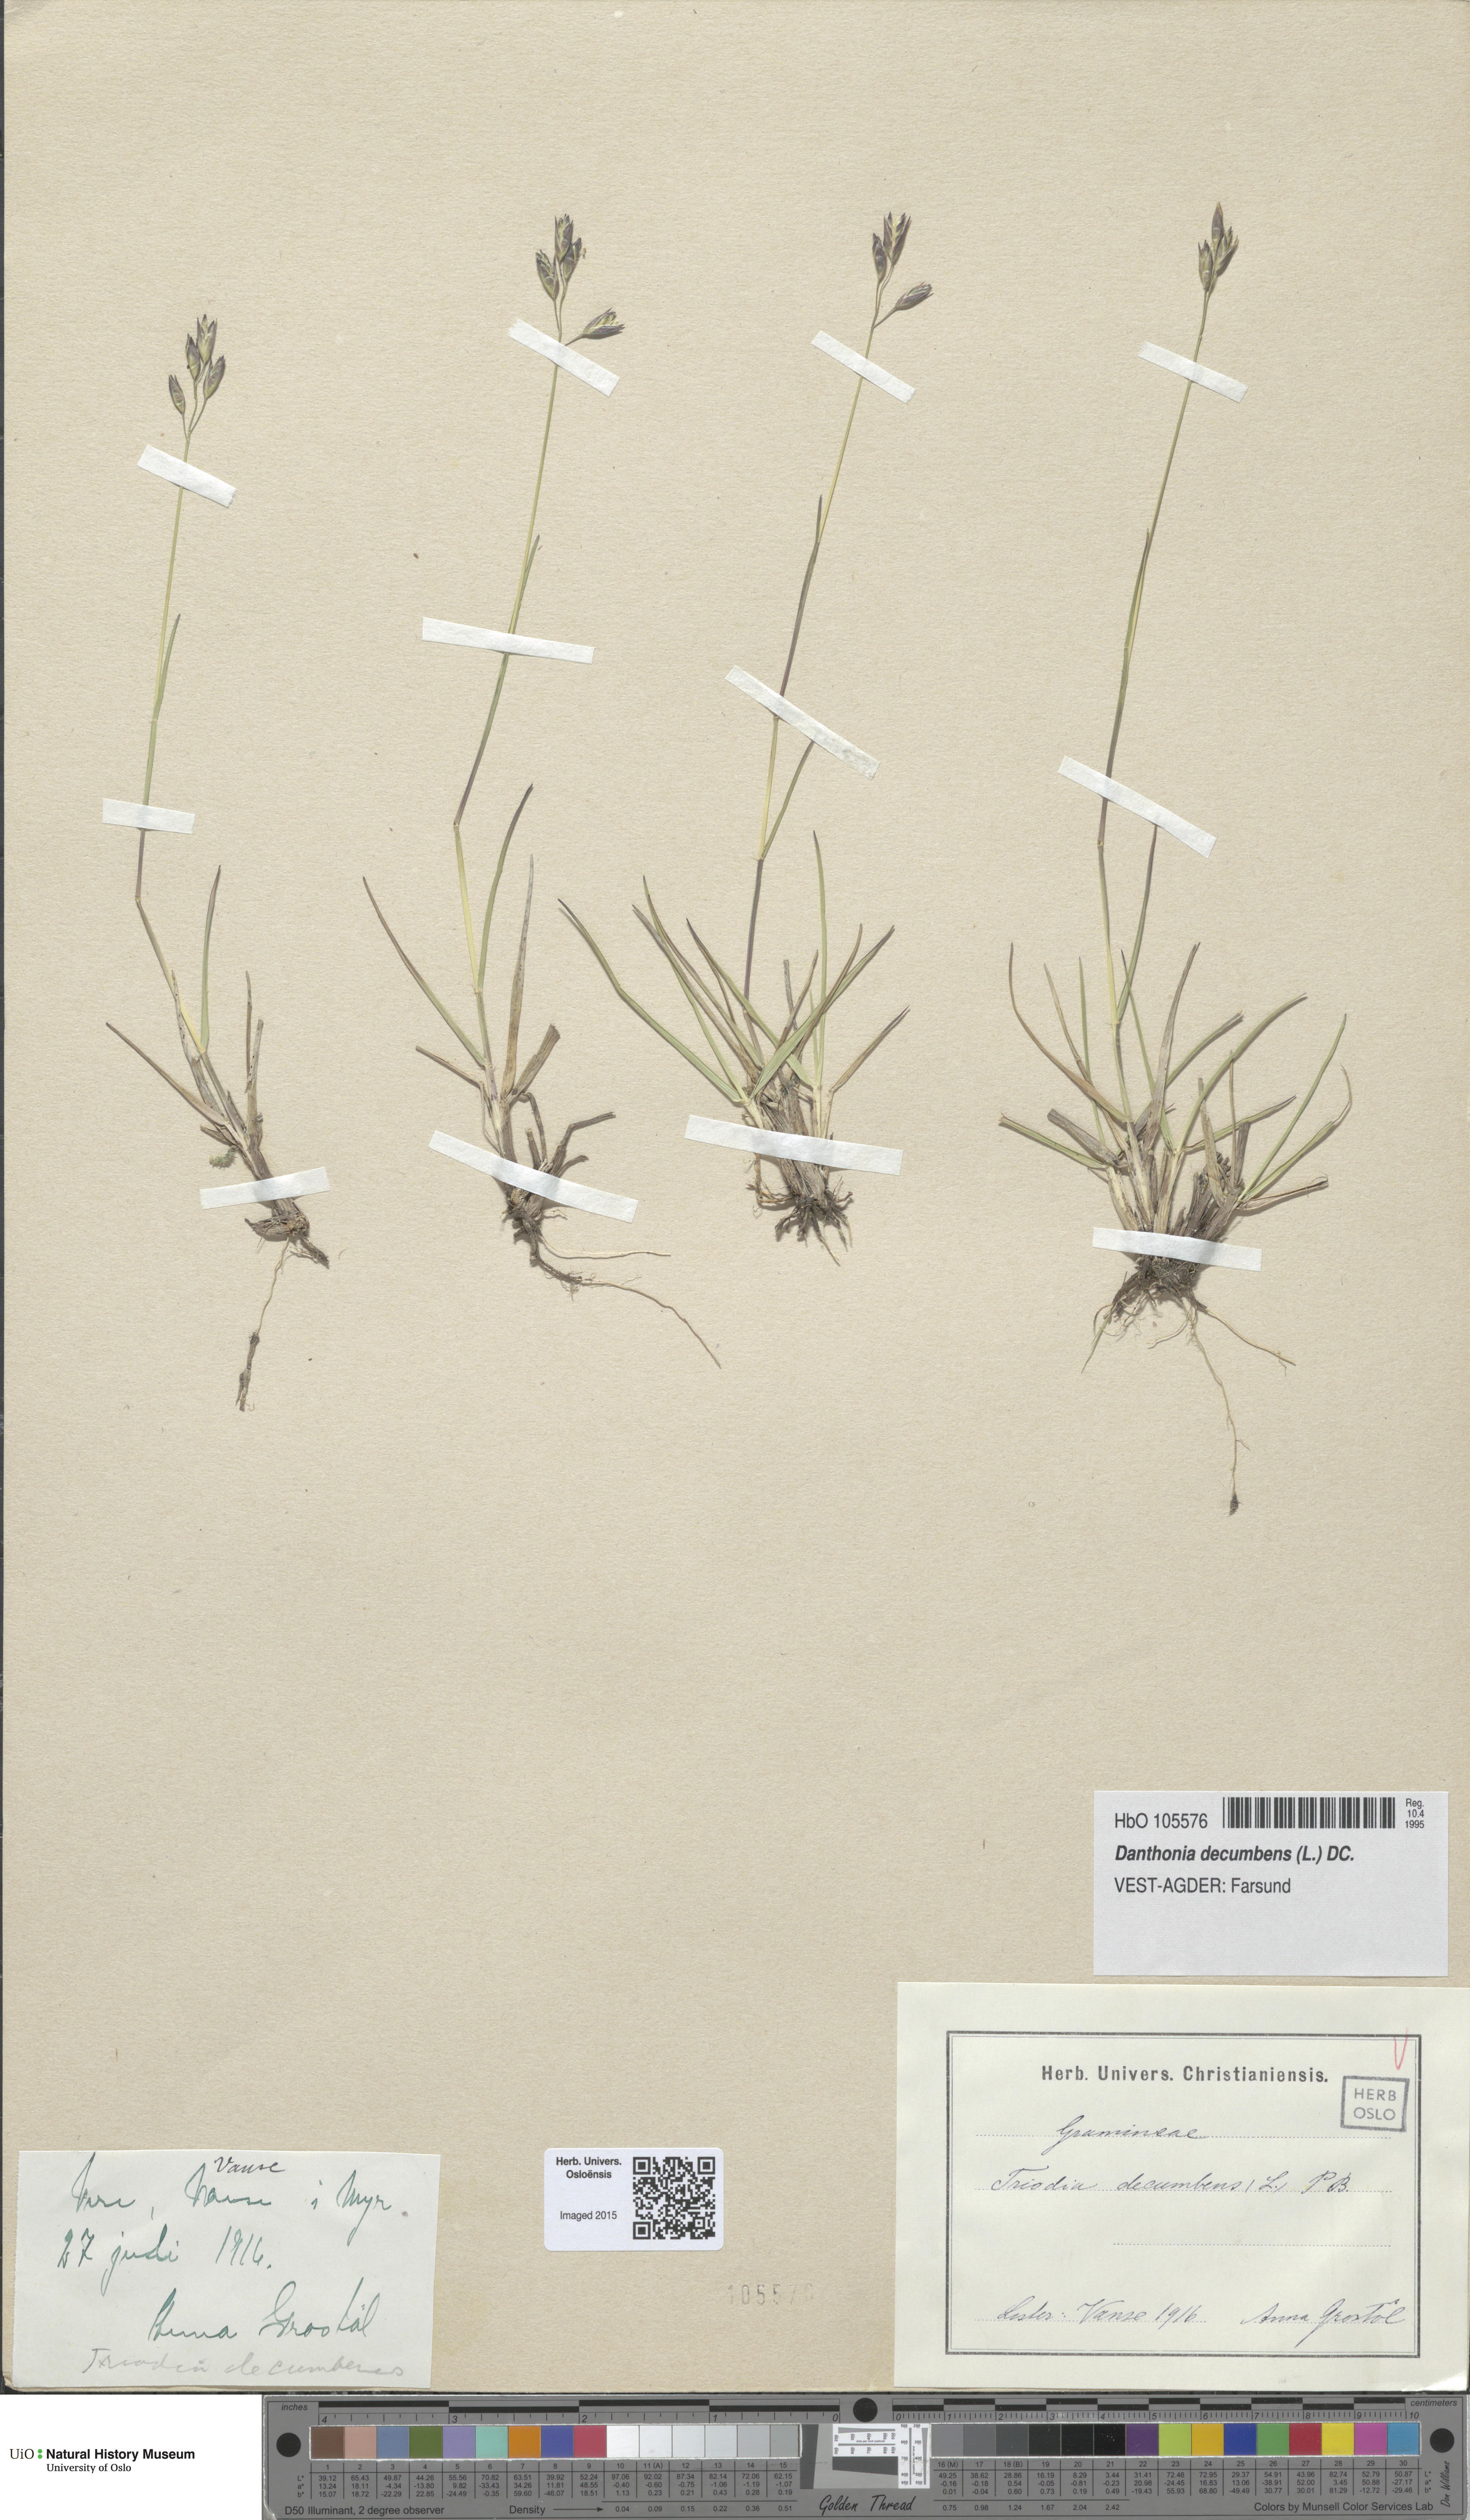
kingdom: Plantae
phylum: Tracheophyta
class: Liliopsida
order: Poales
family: Poaceae
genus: Danthonia
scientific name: Danthonia decumbens
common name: Common heathgrass
